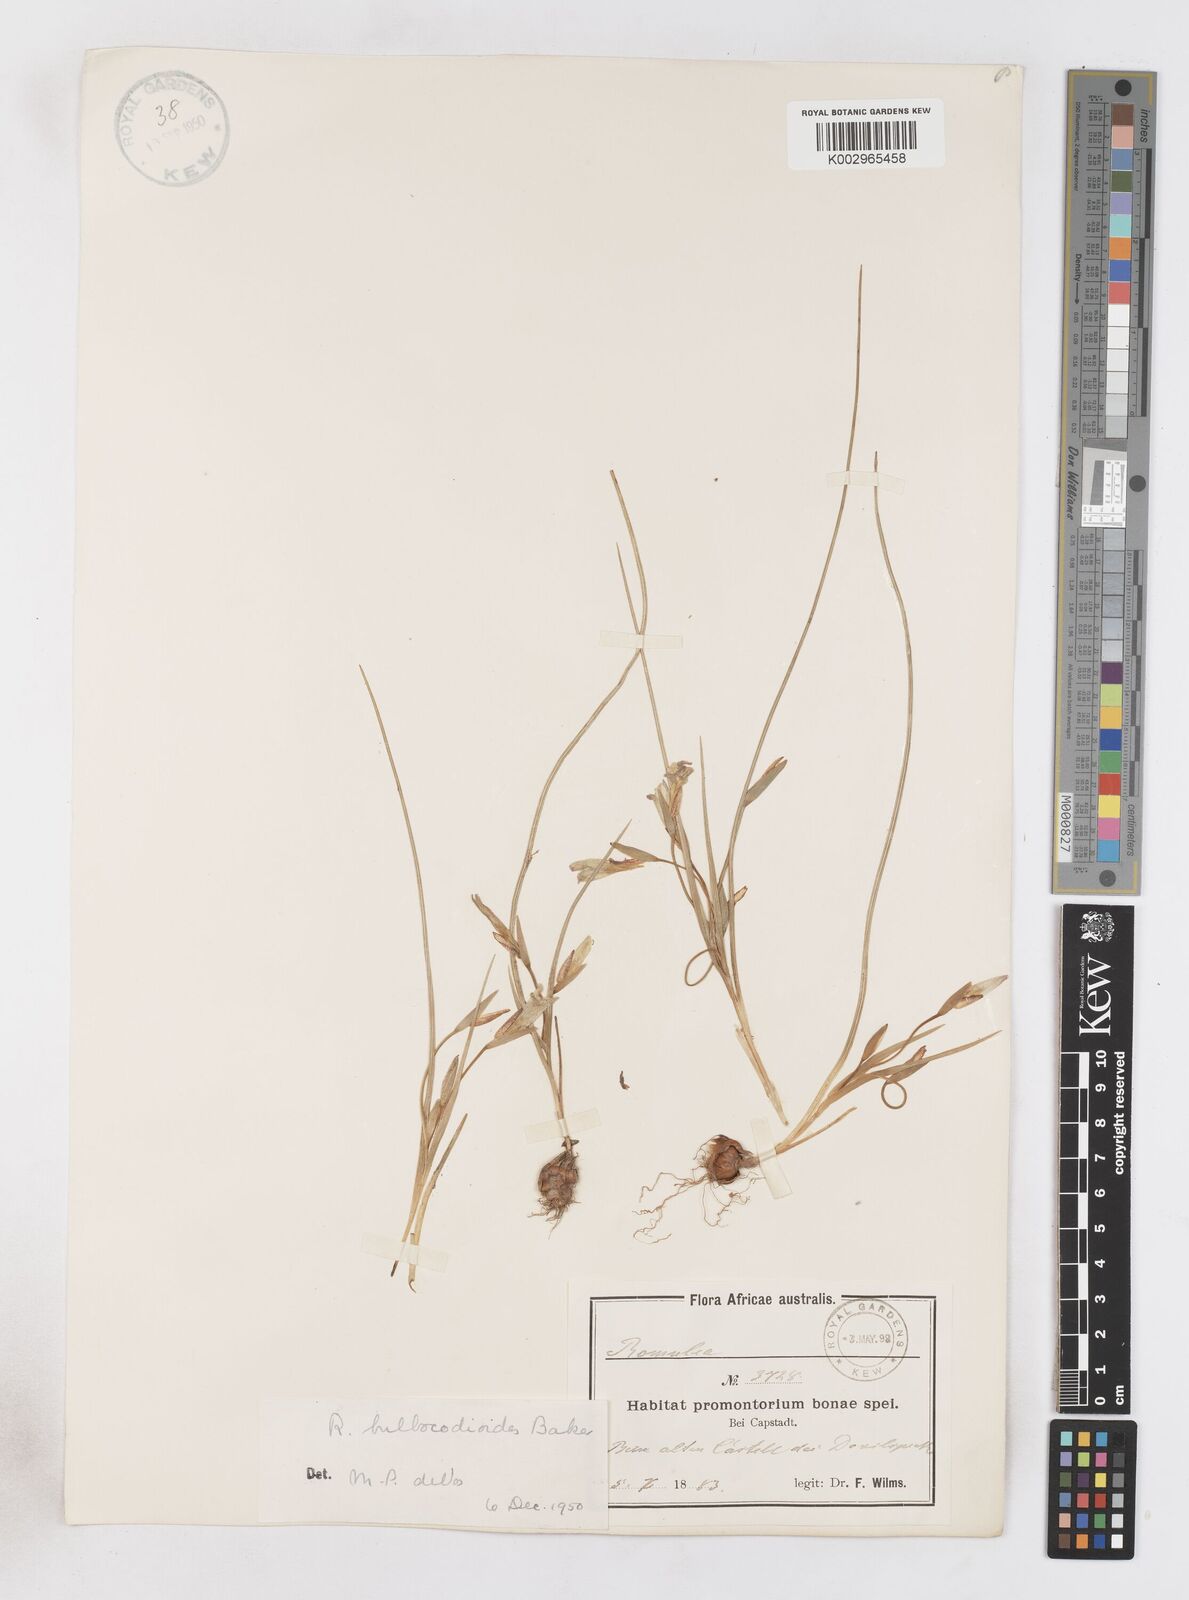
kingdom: Plantae
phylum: Tracheophyta
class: Liliopsida
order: Asparagales
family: Iridaceae
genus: Romulea
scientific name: Romulea flava
